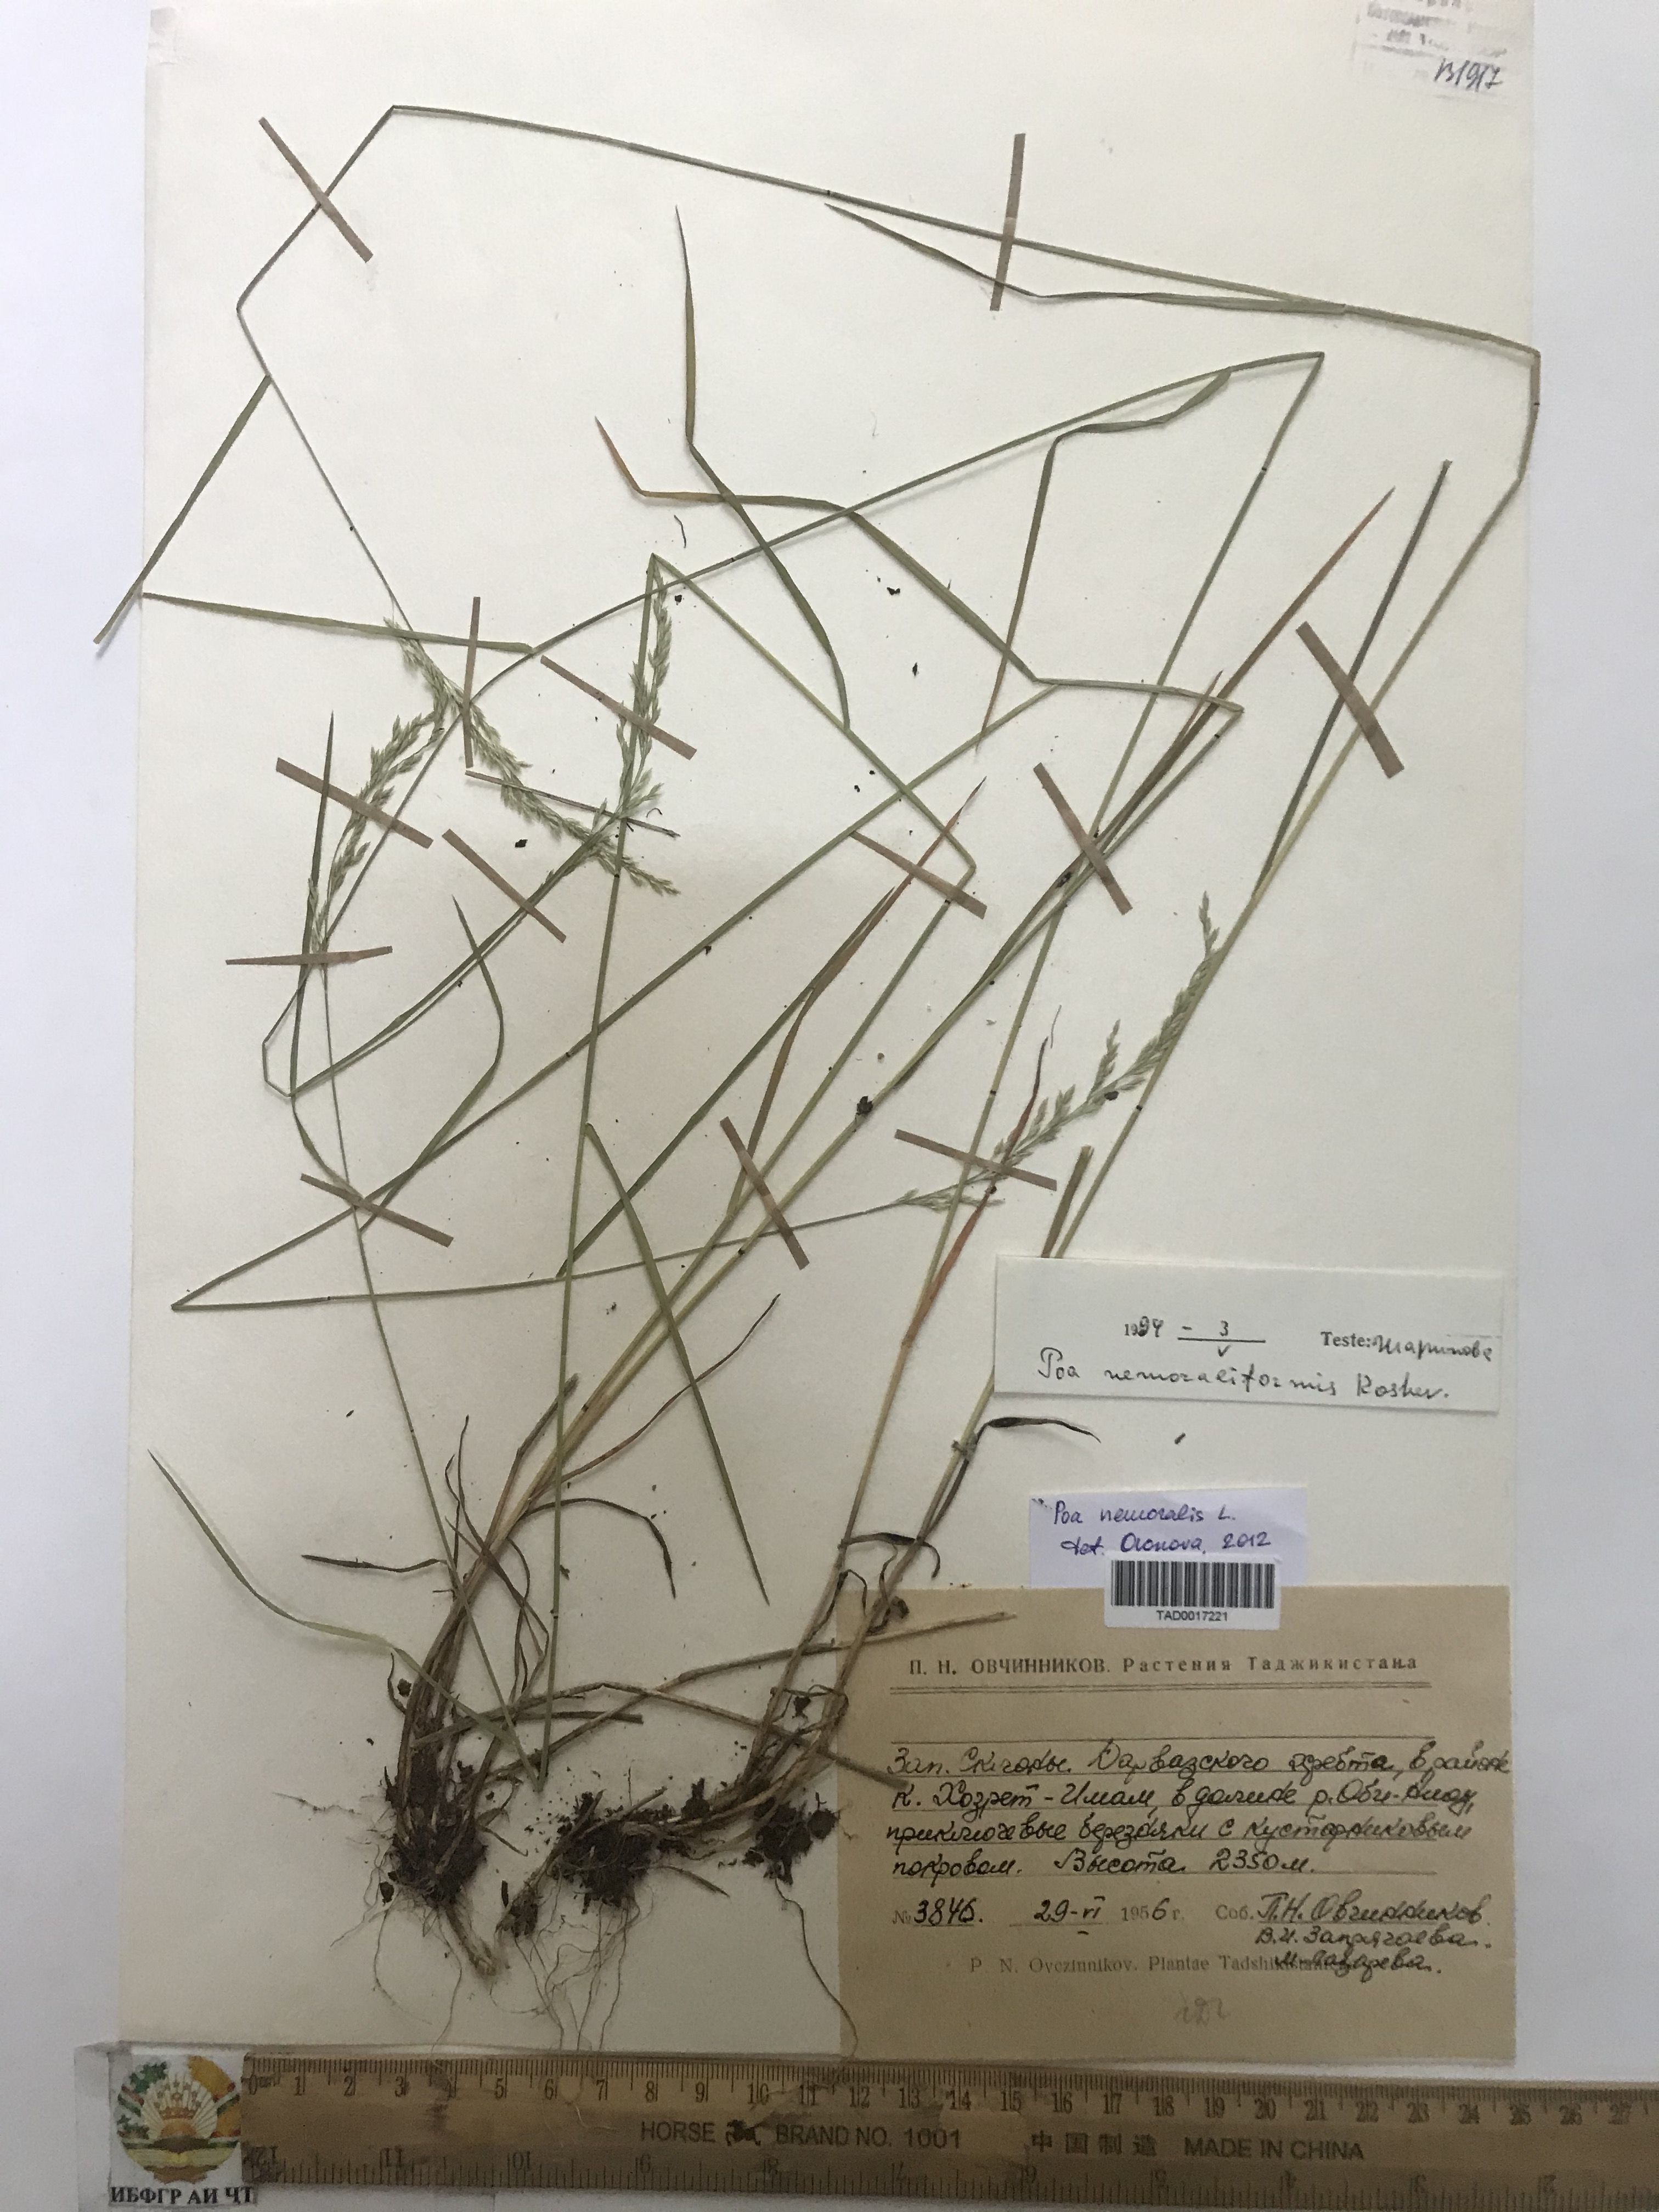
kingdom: Plantae
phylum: Tracheophyta
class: Liliopsida
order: Poales
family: Poaceae
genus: Poa
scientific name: Poa nemoralis
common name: Wood bluegrass
